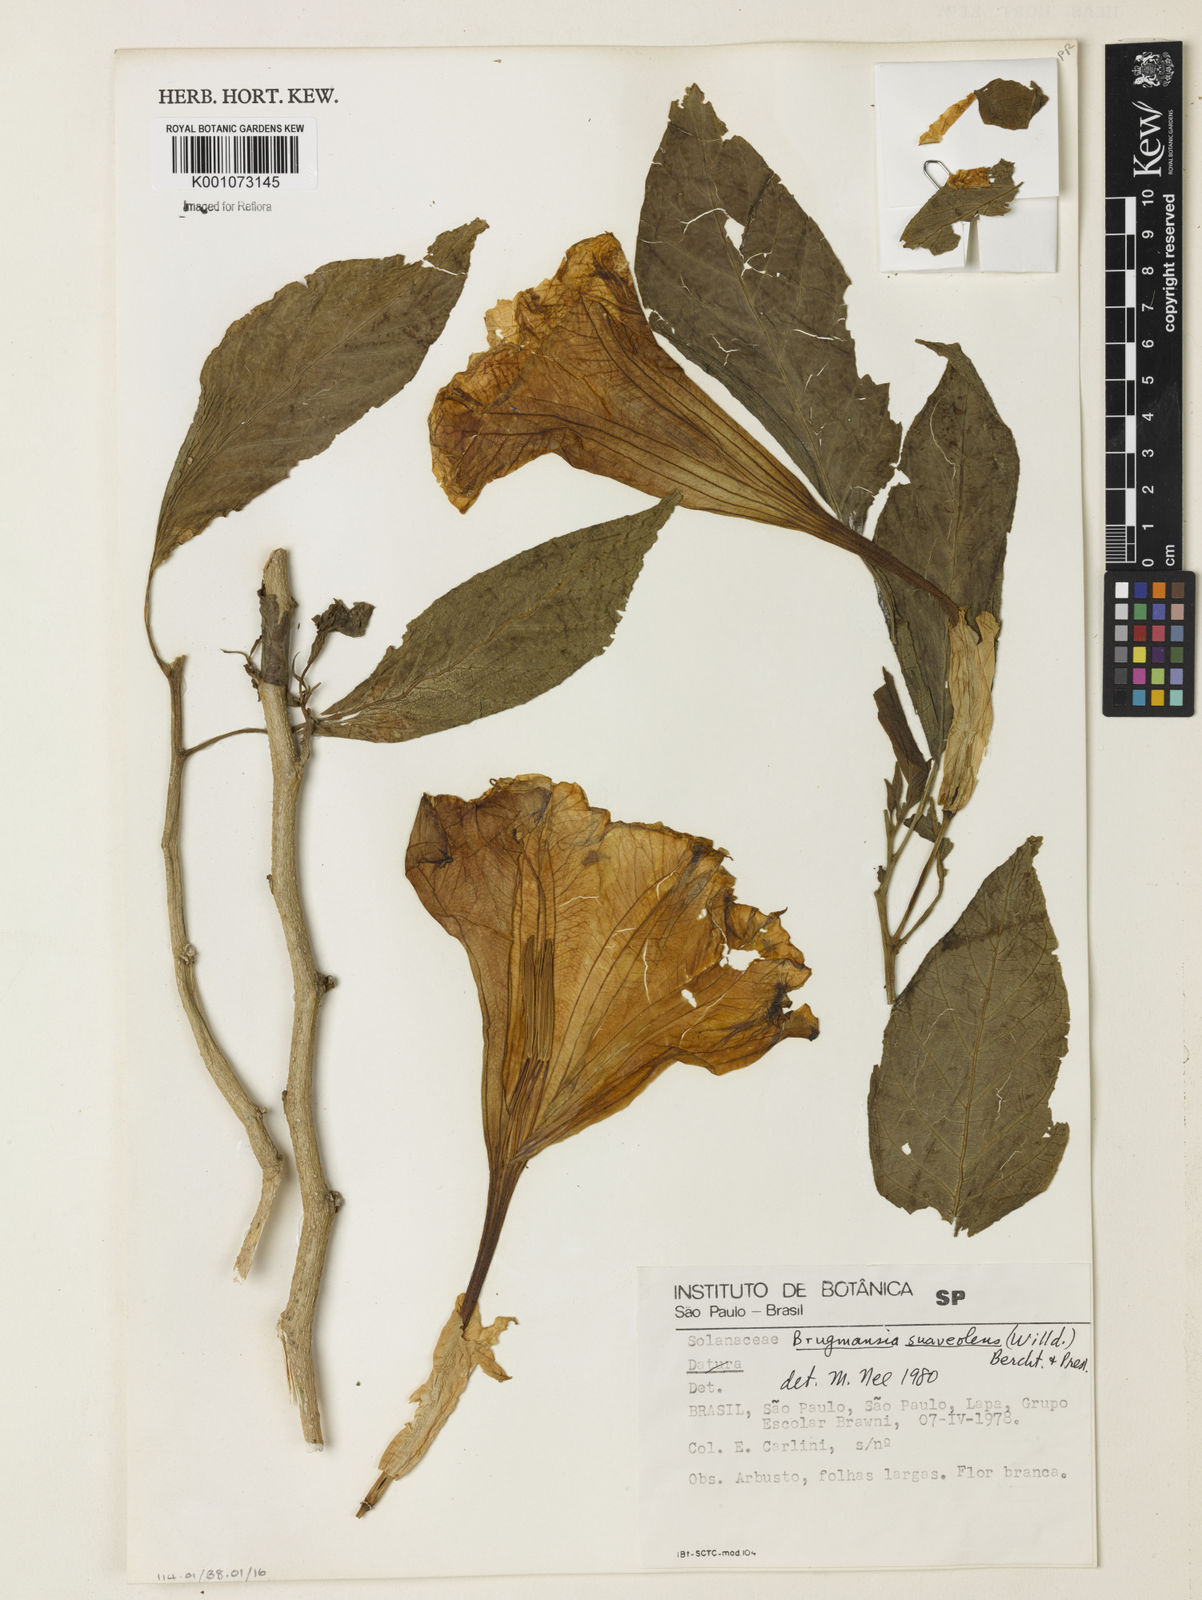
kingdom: Plantae
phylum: Tracheophyta
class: Magnoliopsida
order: Solanales
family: Solanaceae
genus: Brugmansia
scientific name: Brugmansia
